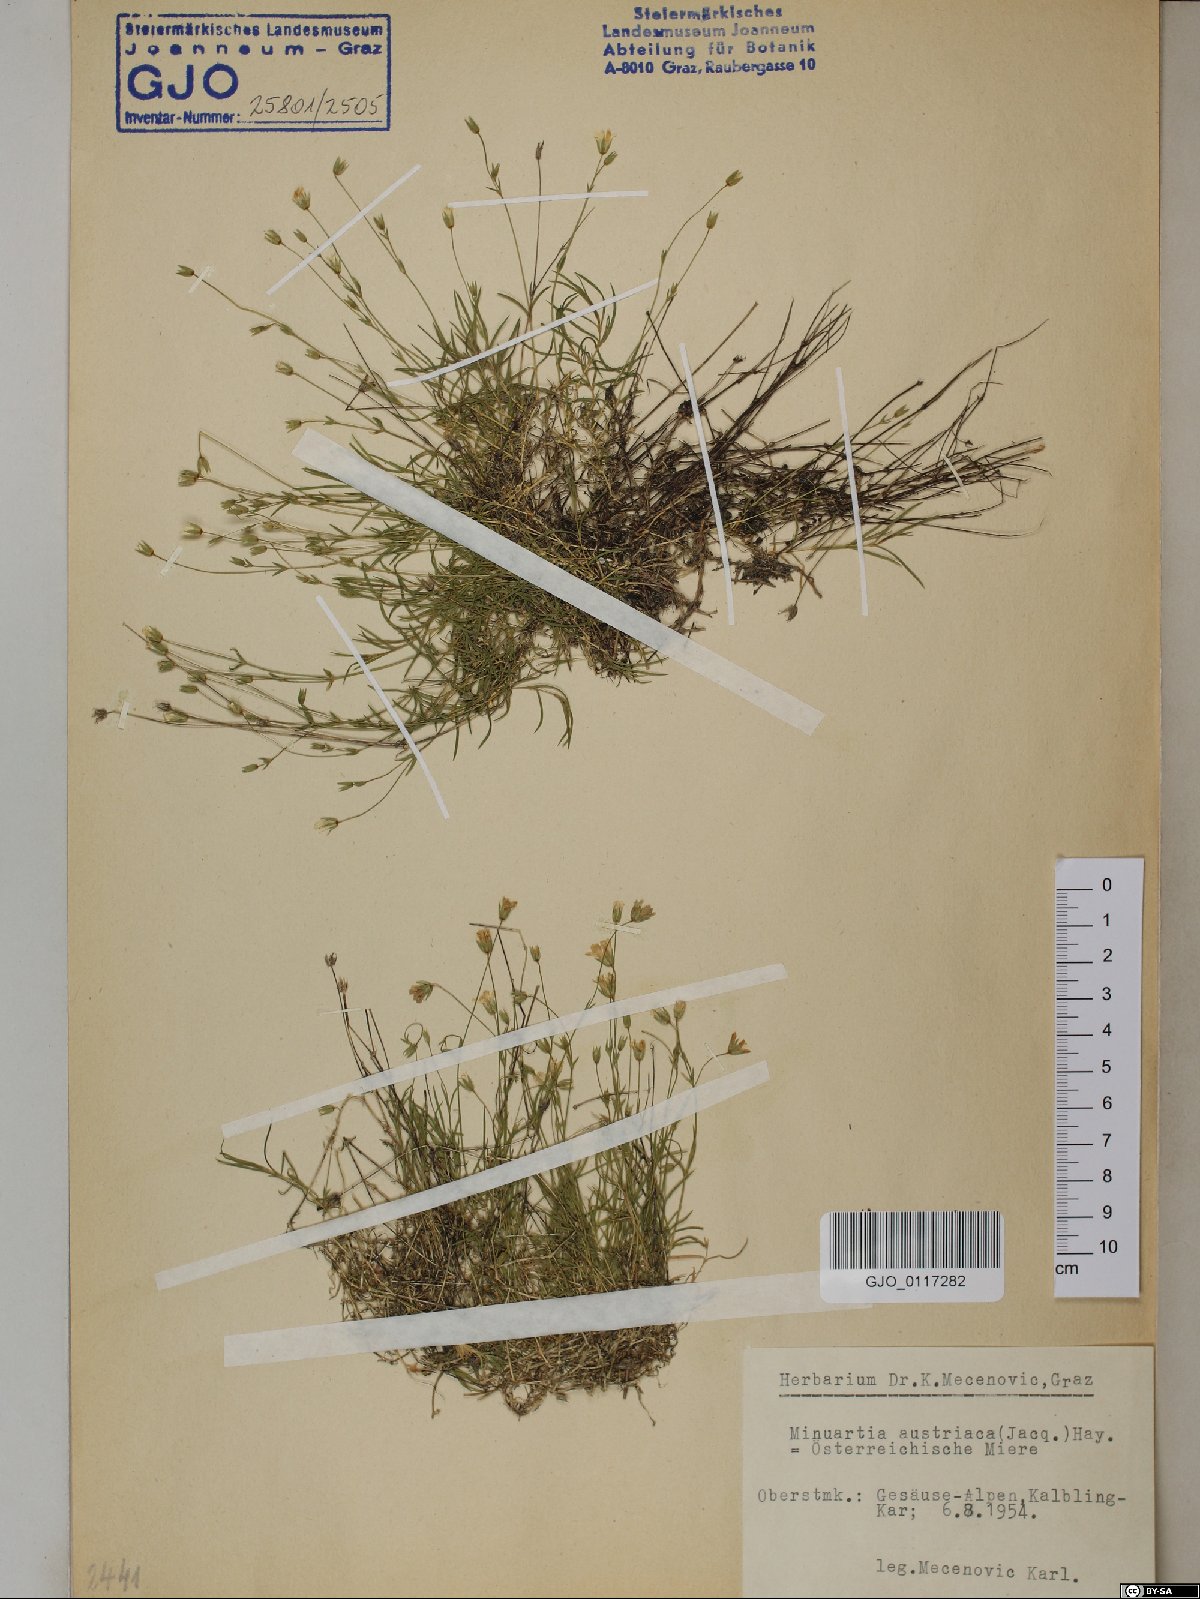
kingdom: Plantae
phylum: Tracheophyta
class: Magnoliopsida
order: Caryophyllales
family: Caryophyllaceae
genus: Sabulina
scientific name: Sabulina austriaca
